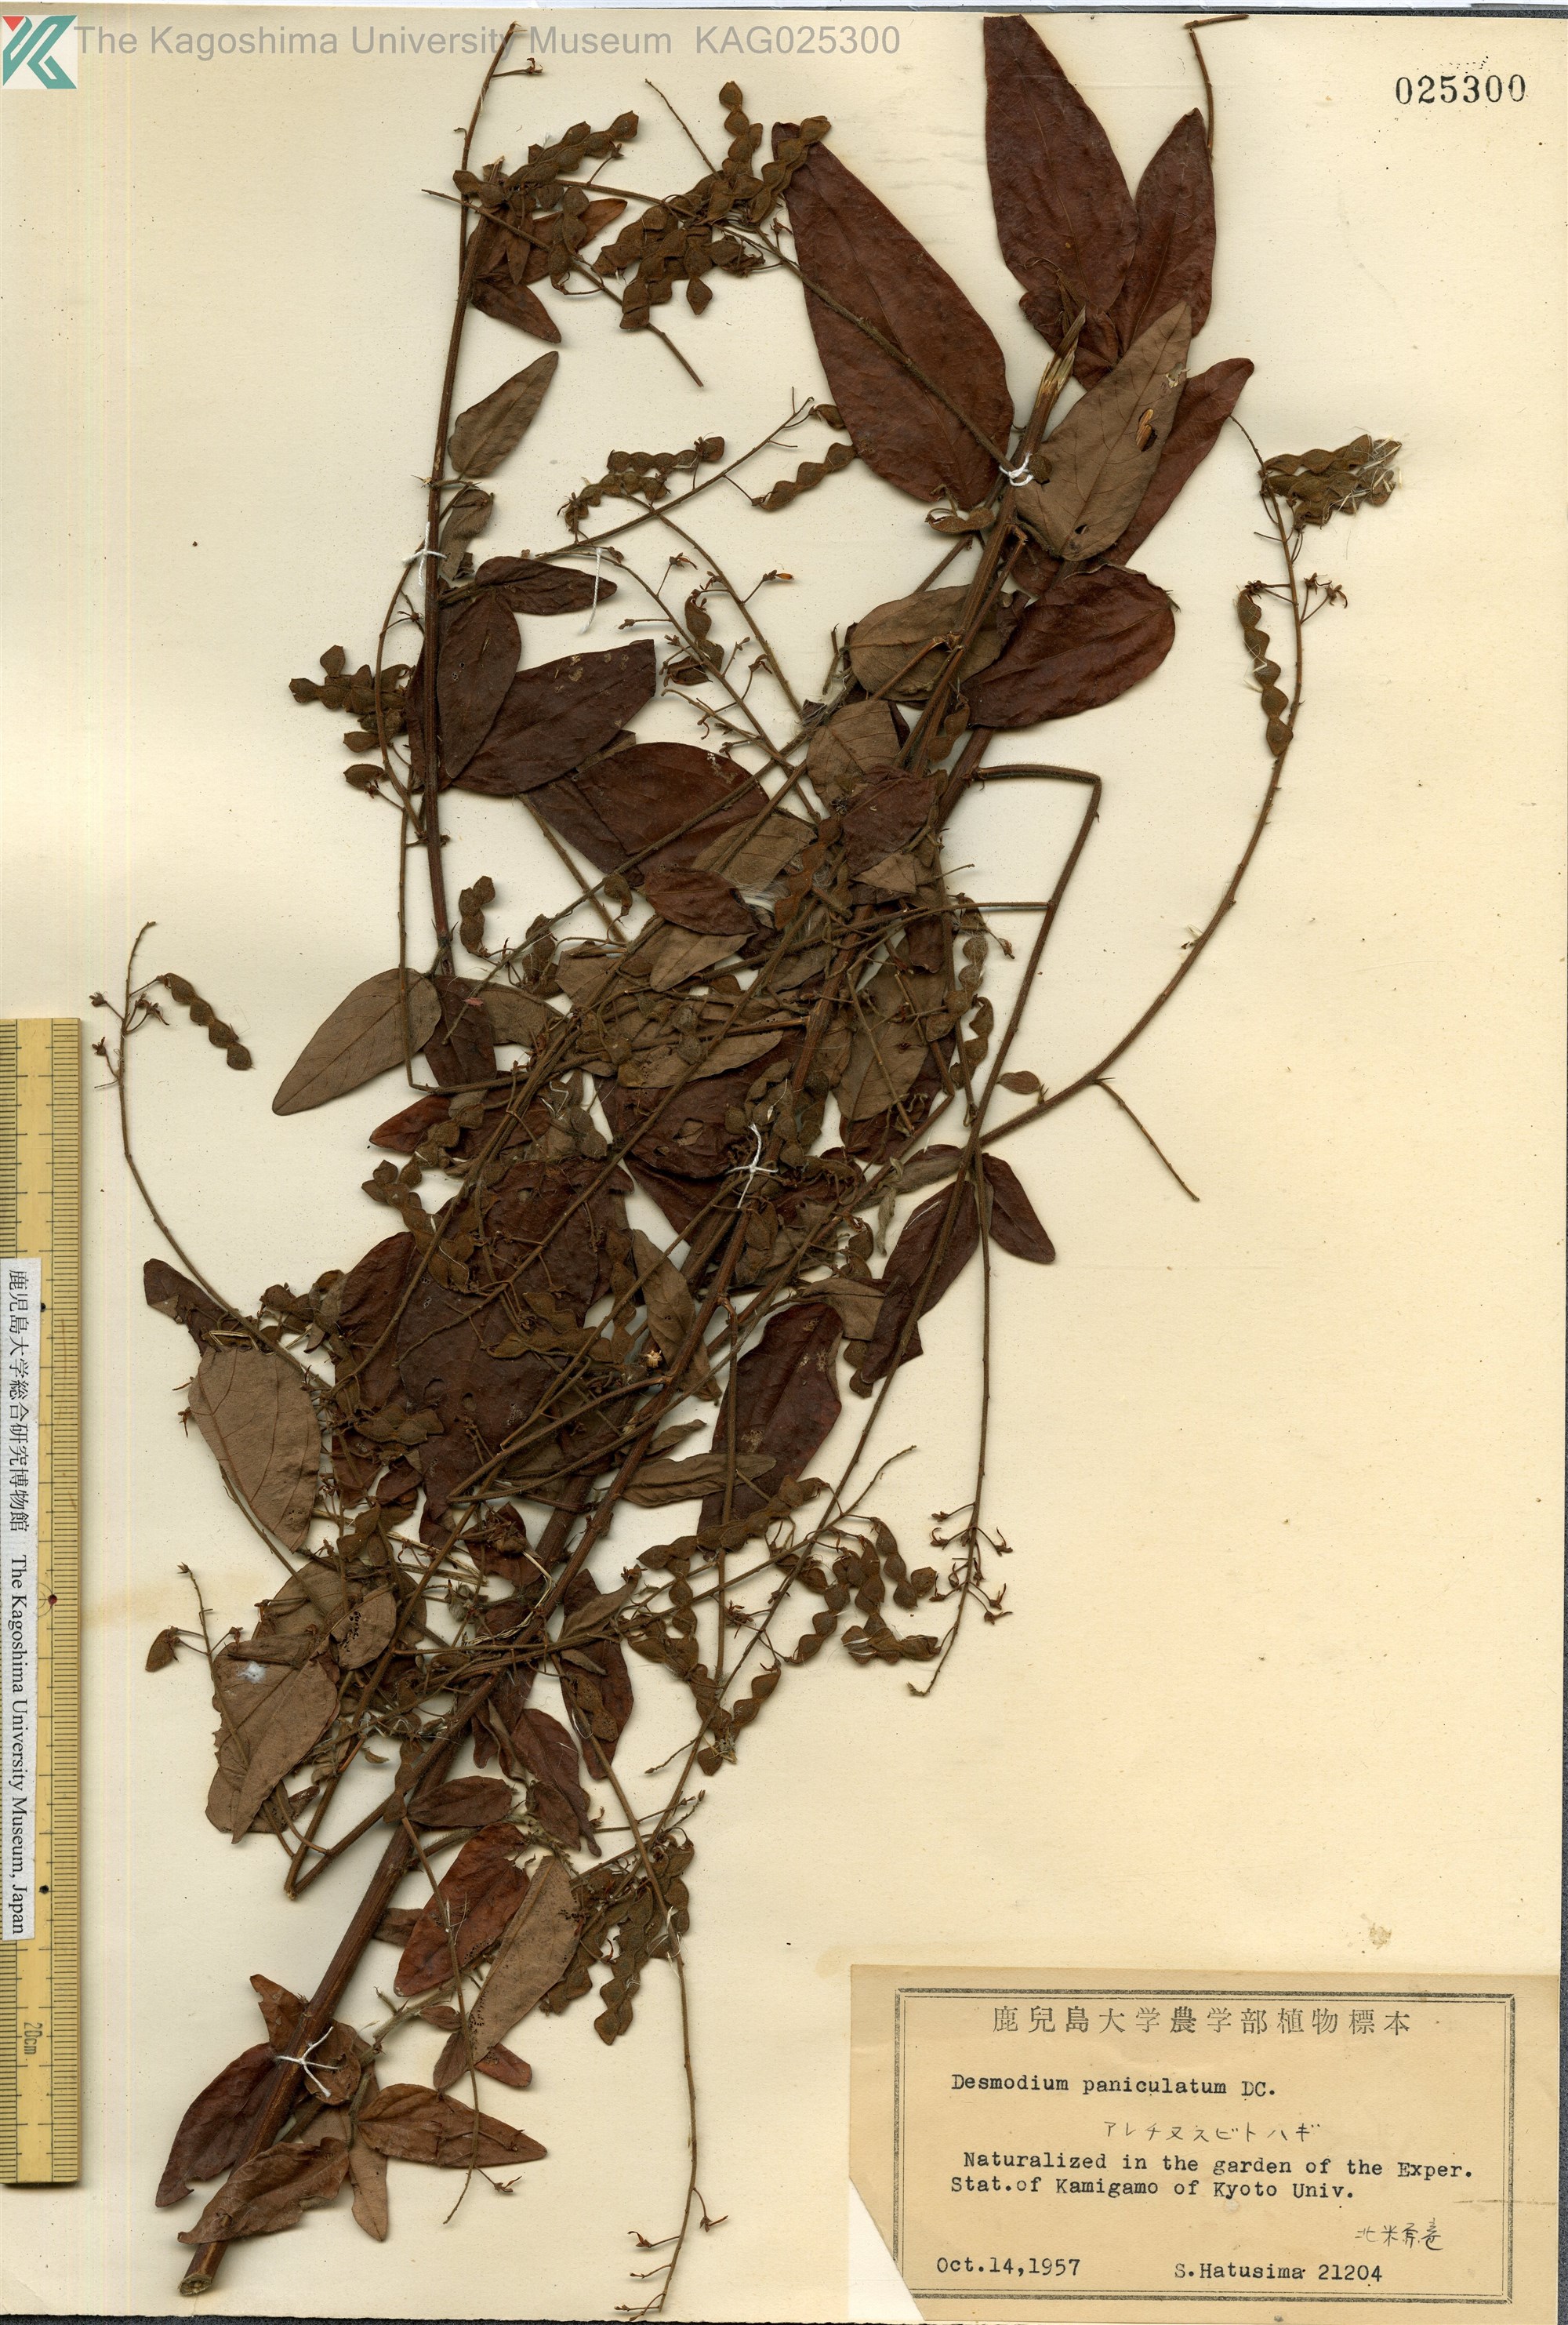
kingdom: Plantae
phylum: Tracheophyta
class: Magnoliopsida
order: Fabales
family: Fabaceae
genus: Desmodium
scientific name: Desmodium paniculatum
